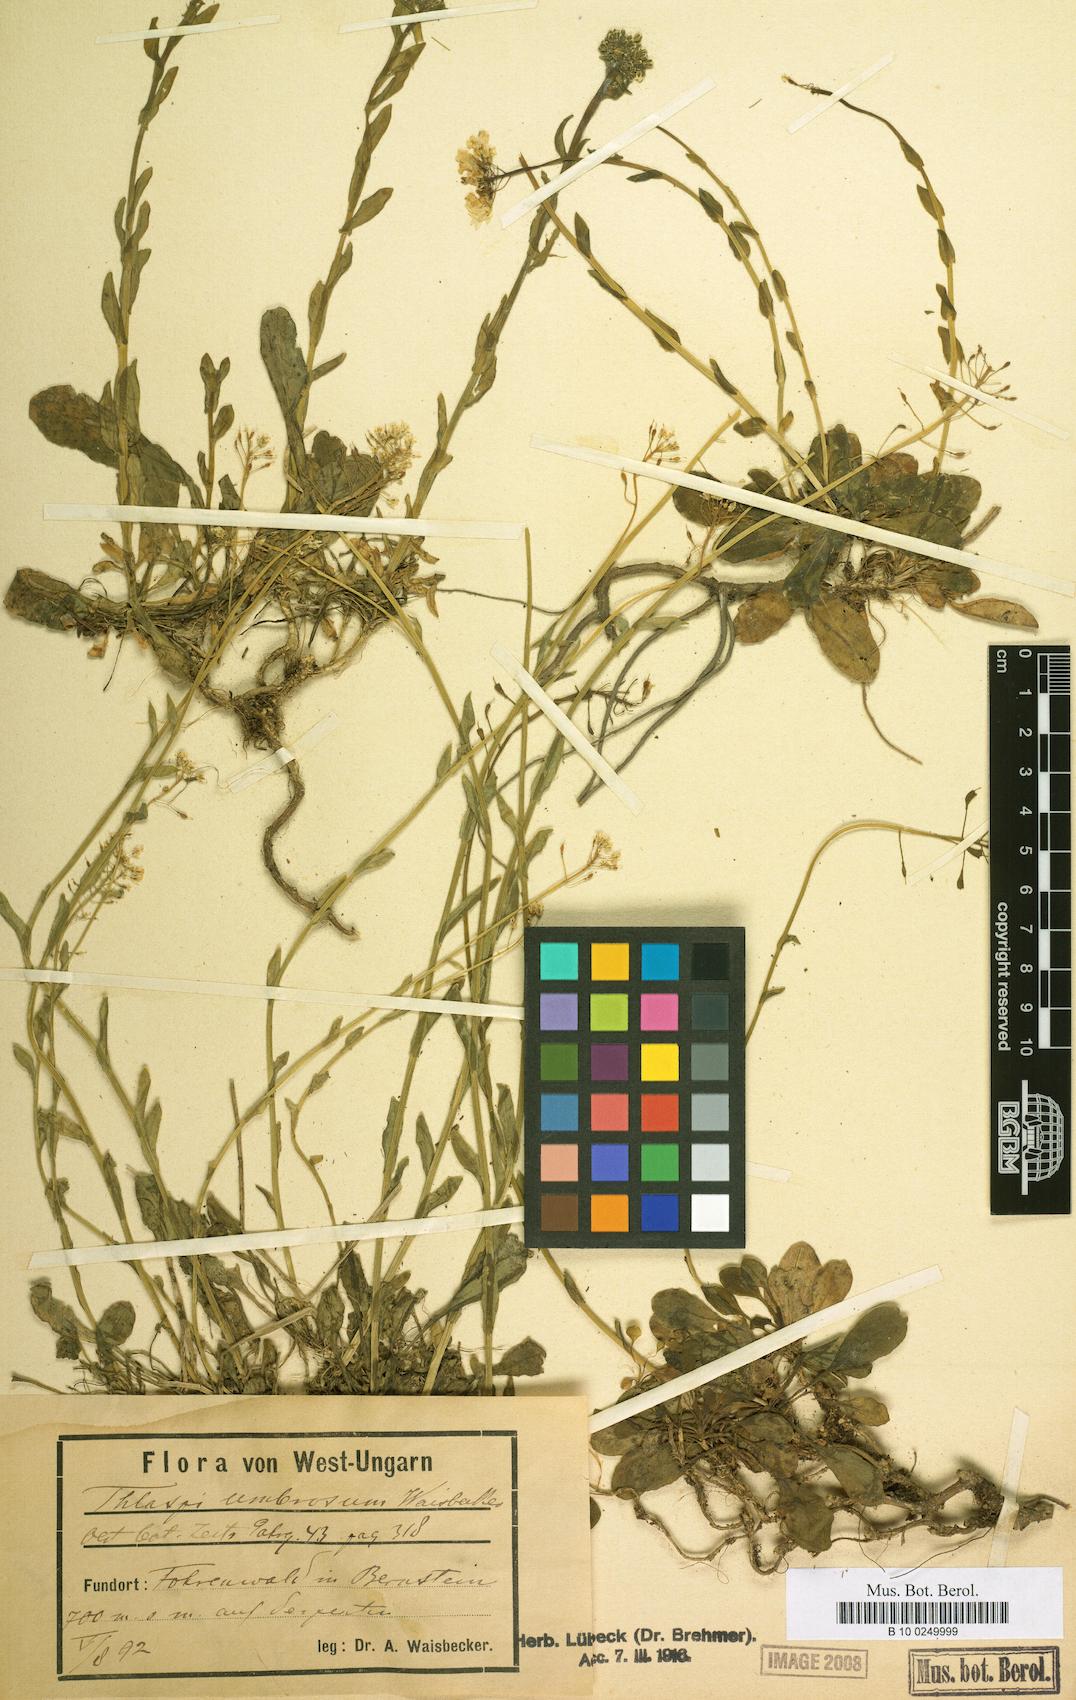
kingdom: Plantae
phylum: Tracheophyta
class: Magnoliopsida
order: Brassicales
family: Brassicaceae
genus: Noccaea
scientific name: Noccaea goesingensis
